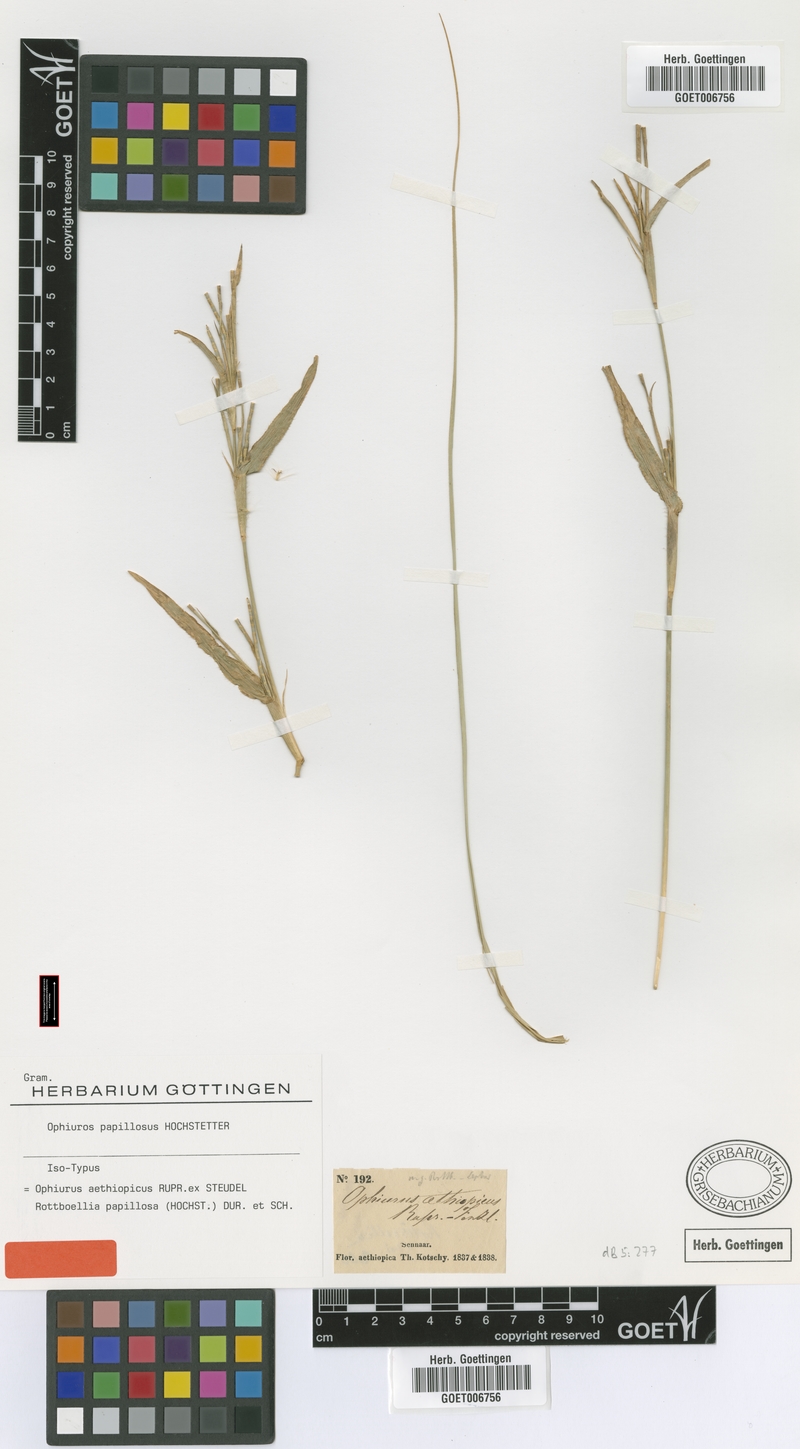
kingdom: Plantae
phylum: Tracheophyta
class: Liliopsida
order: Poales
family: Poaceae
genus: Ophiuros
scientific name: Ophiuros papillosus
